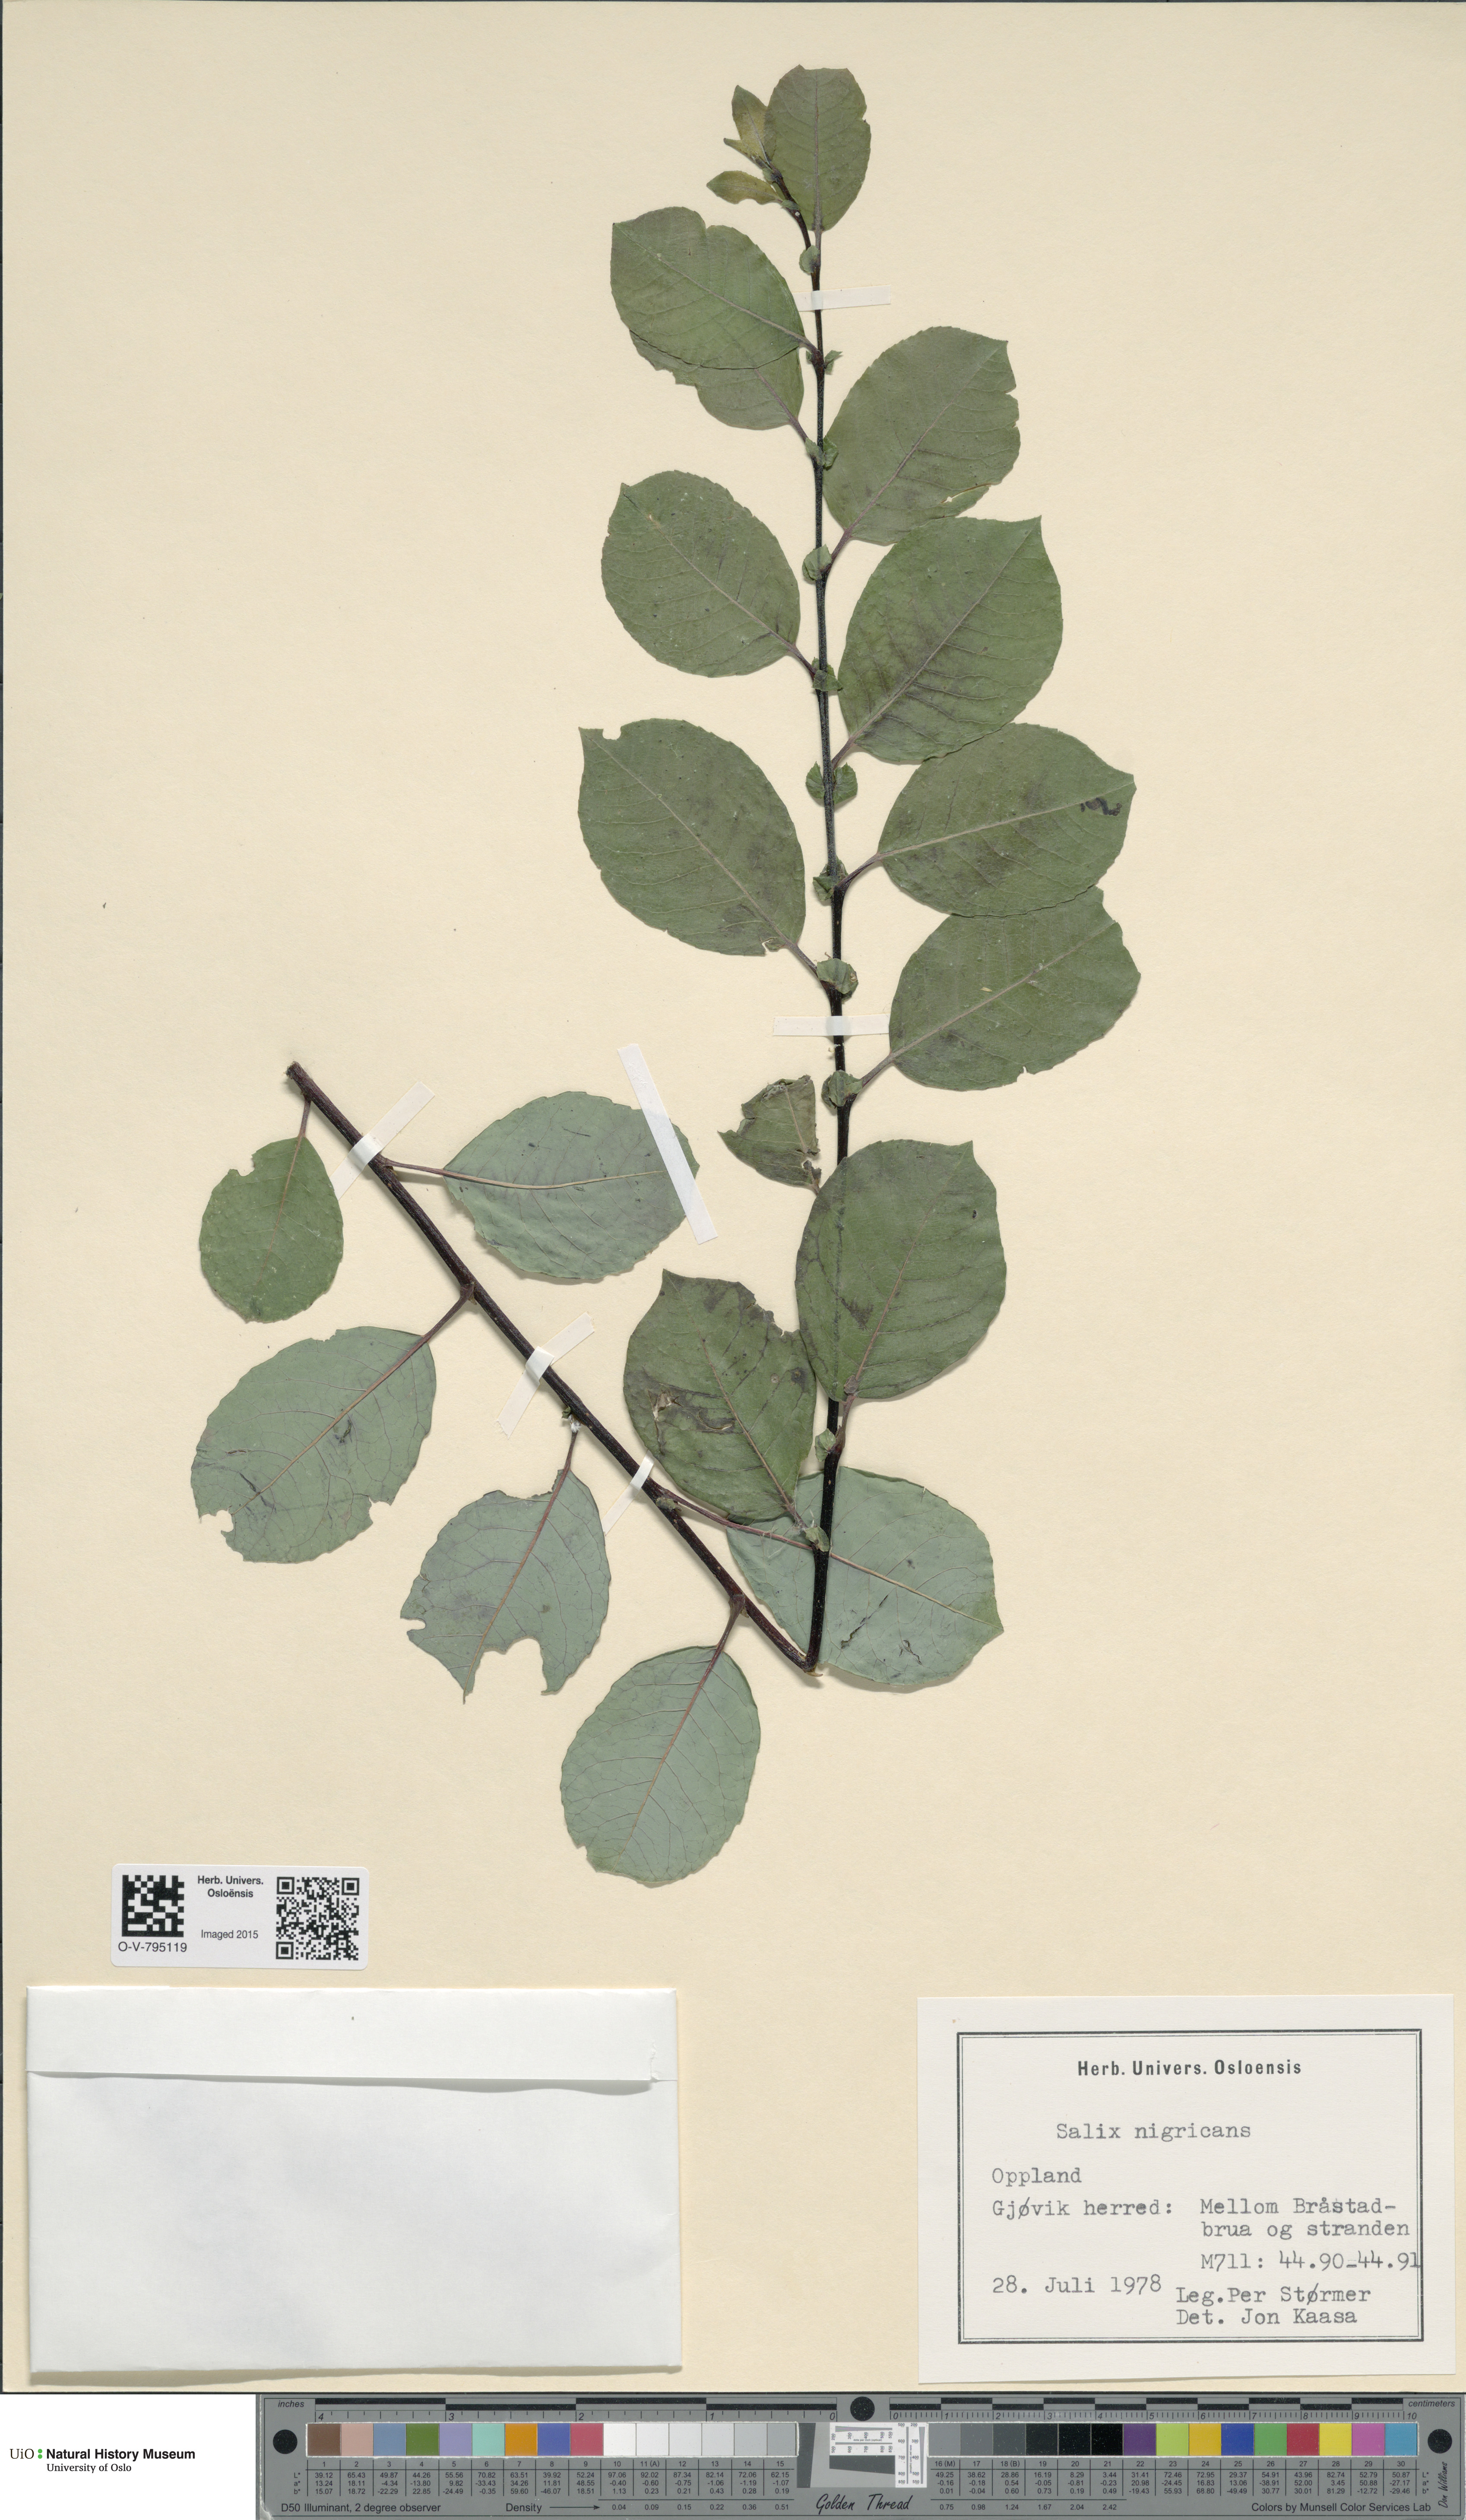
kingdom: Plantae
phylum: Tracheophyta
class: Magnoliopsida
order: Malpighiales
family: Salicaceae
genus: Salix
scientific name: Salix myrsinifolia
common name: Dark-leaved willow
